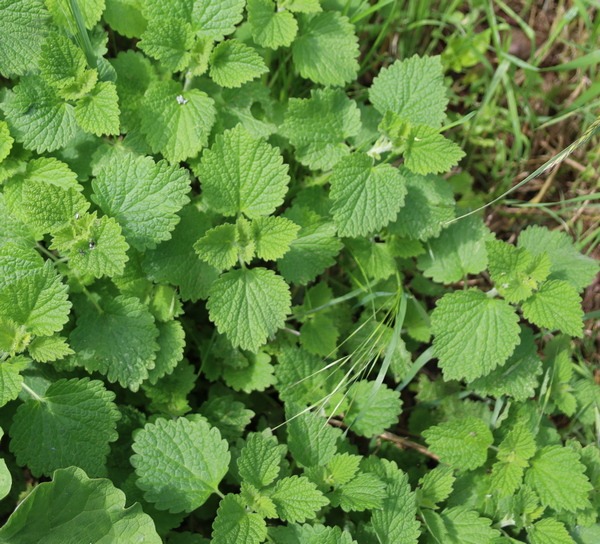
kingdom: Plantae
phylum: Tracheophyta
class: Magnoliopsida
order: Lamiales
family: Lamiaceae
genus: Ballota
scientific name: Ballota nigra
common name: Tandbæger
